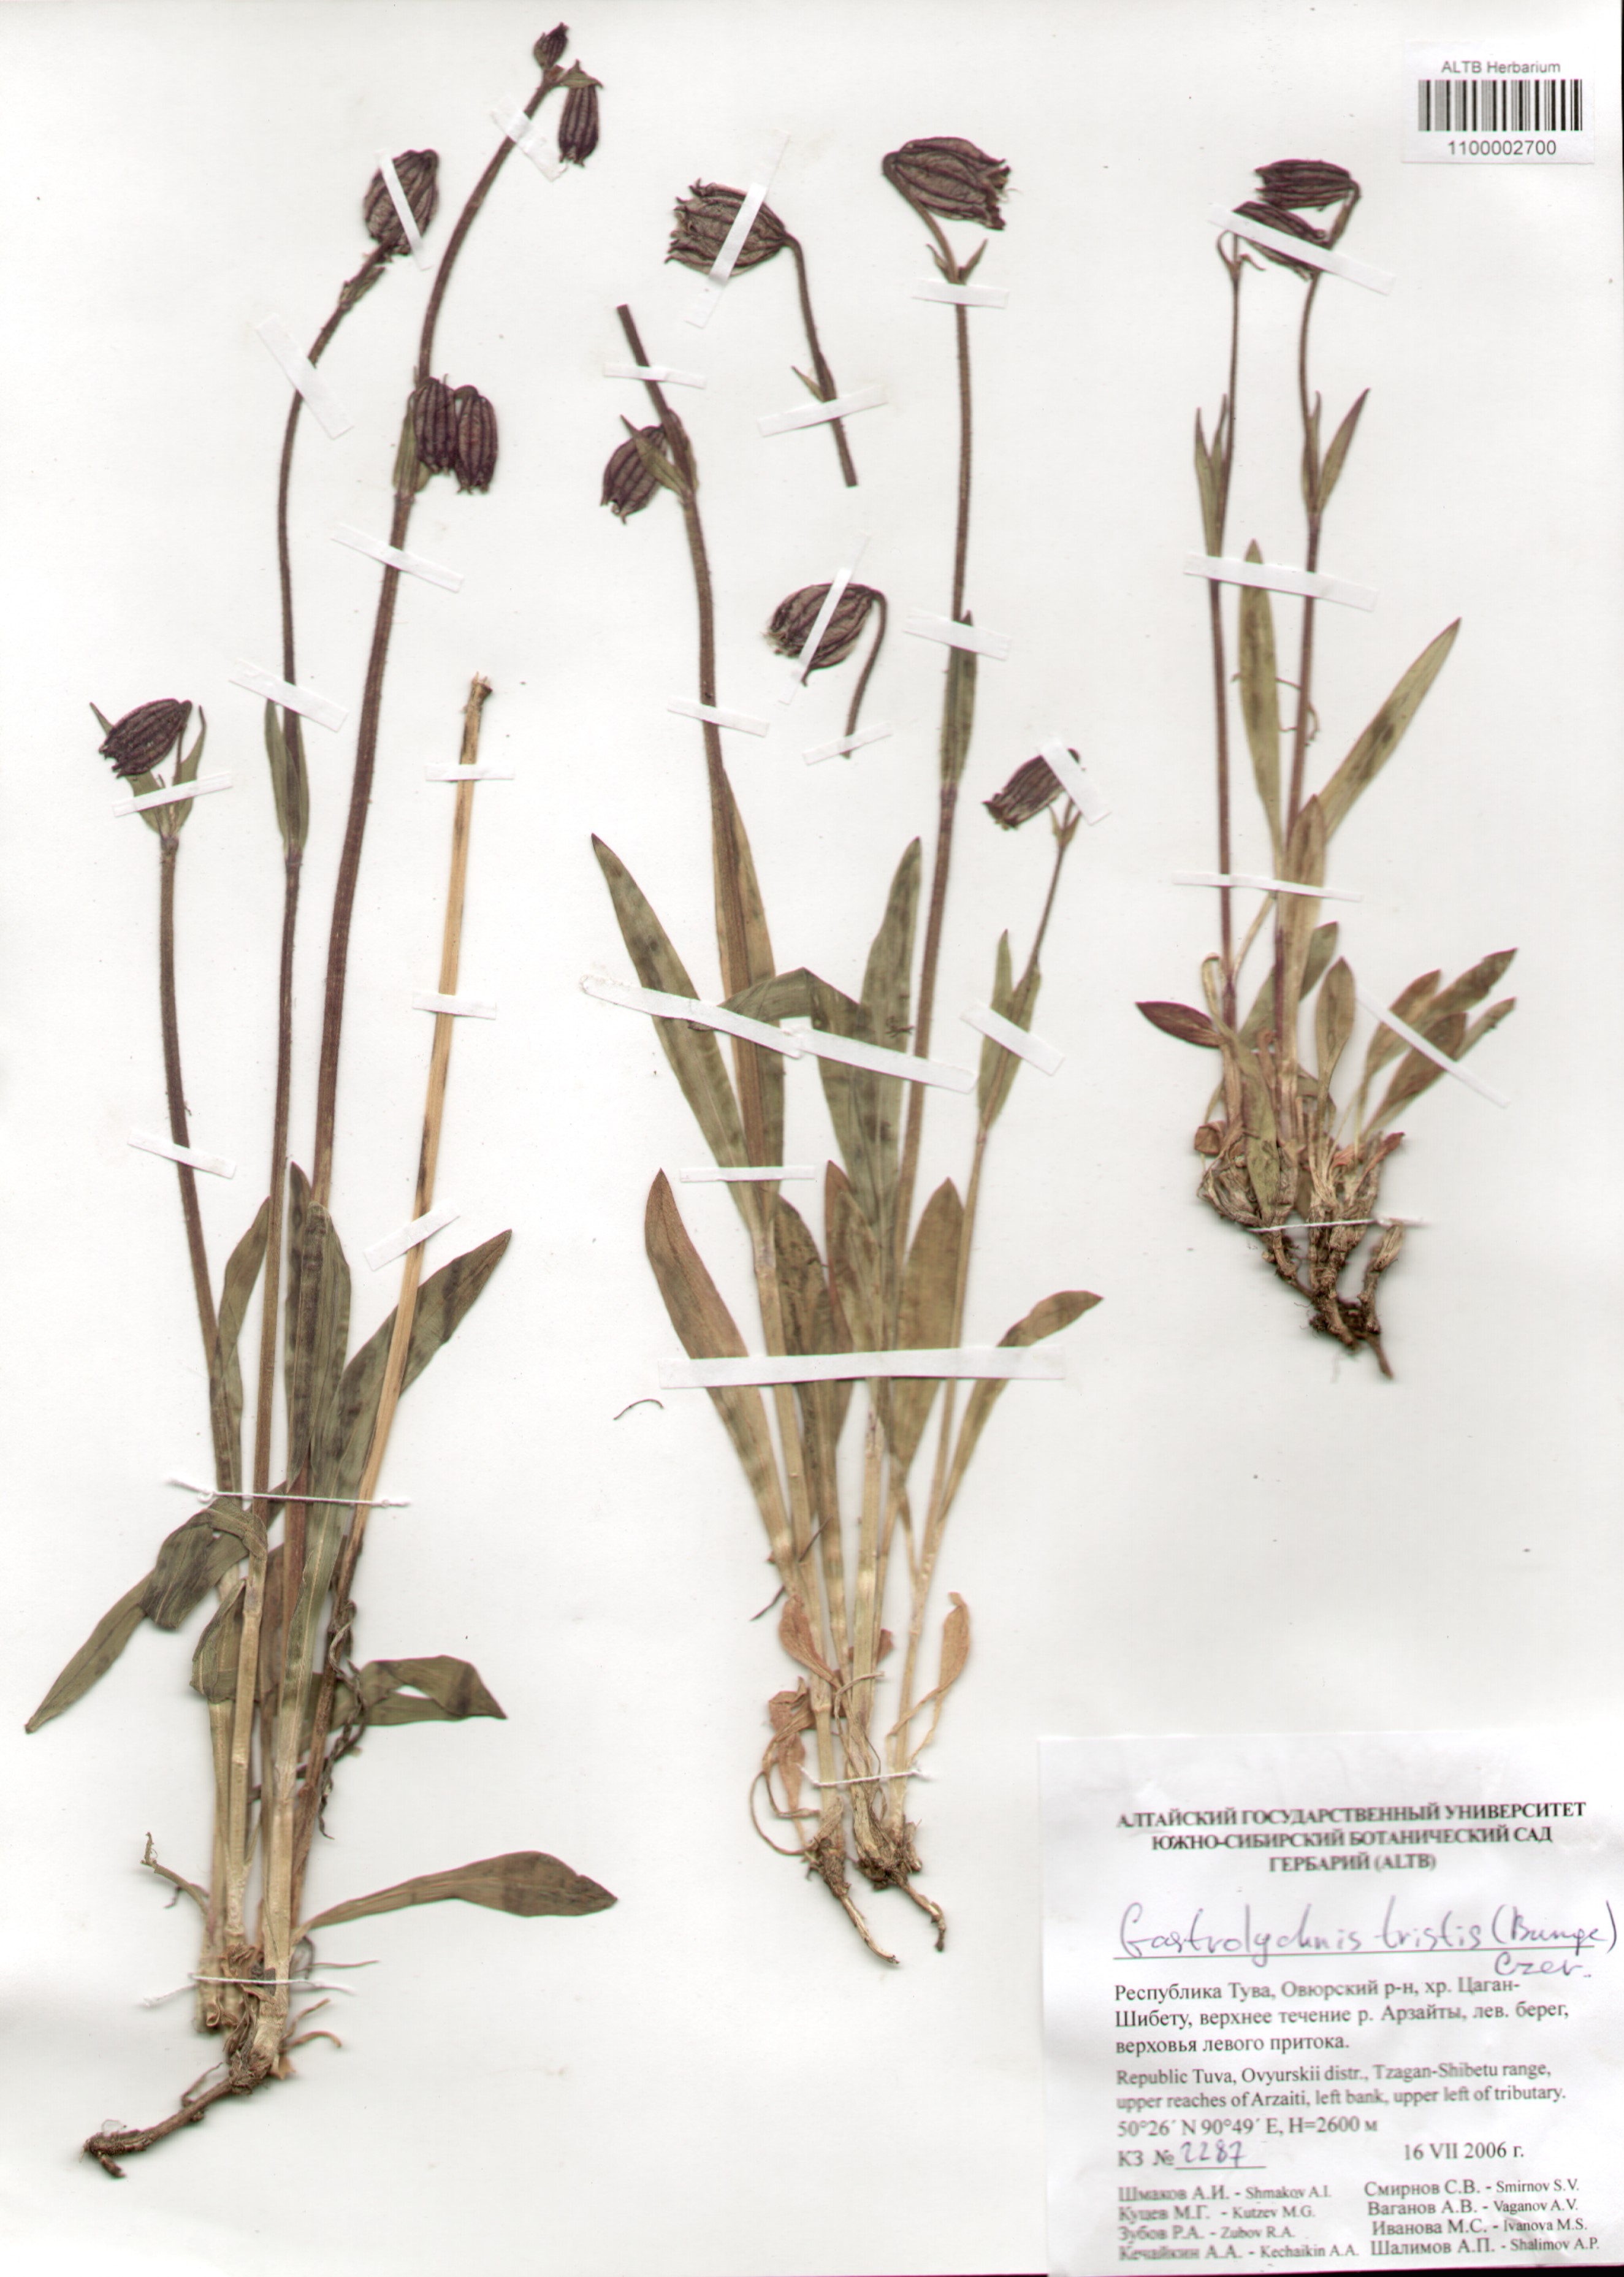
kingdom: Plantae
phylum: Tracheophyta
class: Magnoliopsida
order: Caryophyllales
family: Caryophyllaceae
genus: Silene
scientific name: Silene bungei
